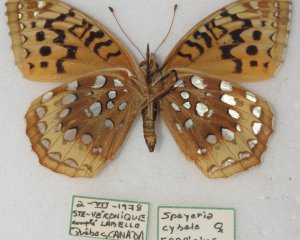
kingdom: Animalia
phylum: Arthropoda
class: Insecta
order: Lepidoptera
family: Nymphalidae
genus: Speyeria
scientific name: Speyeria cybele
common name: Great Spangled Fritillary
